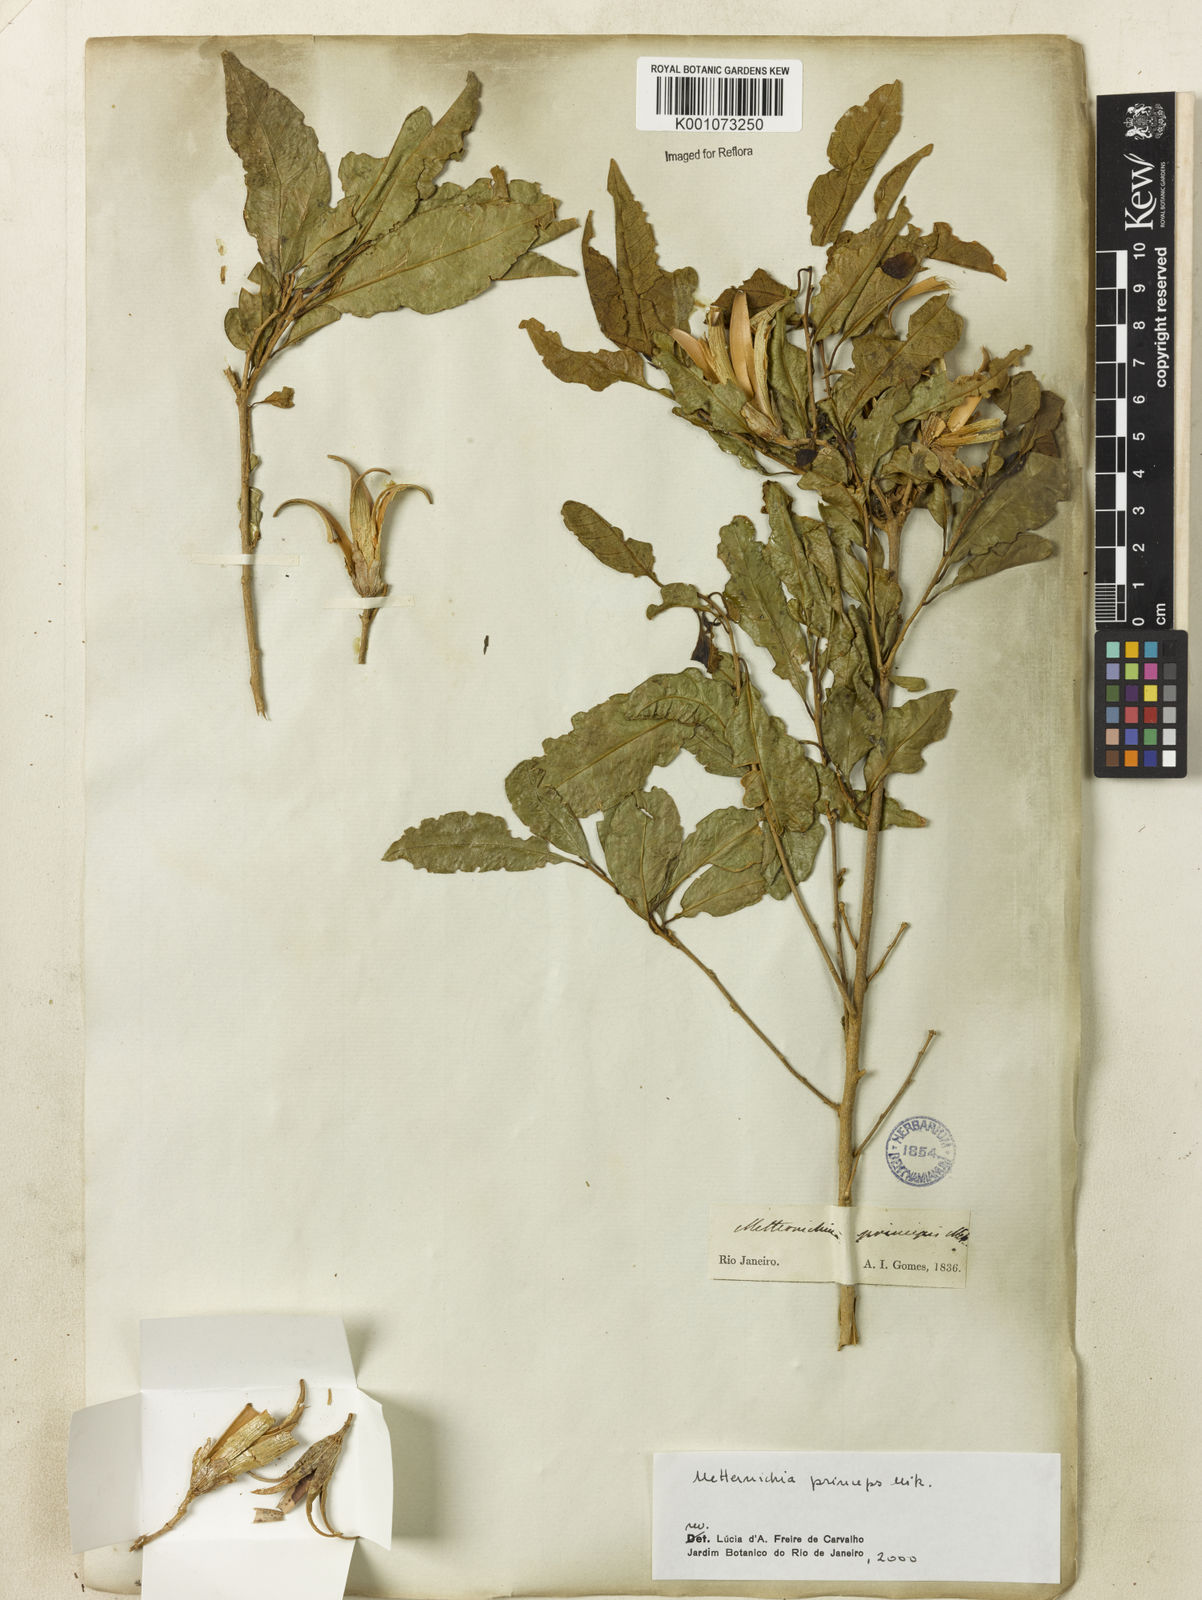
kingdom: Plantae
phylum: Tracheophyta
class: Magnoliopsida
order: Solanales
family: Solanaceae
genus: Metternichia
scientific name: Metternichia
